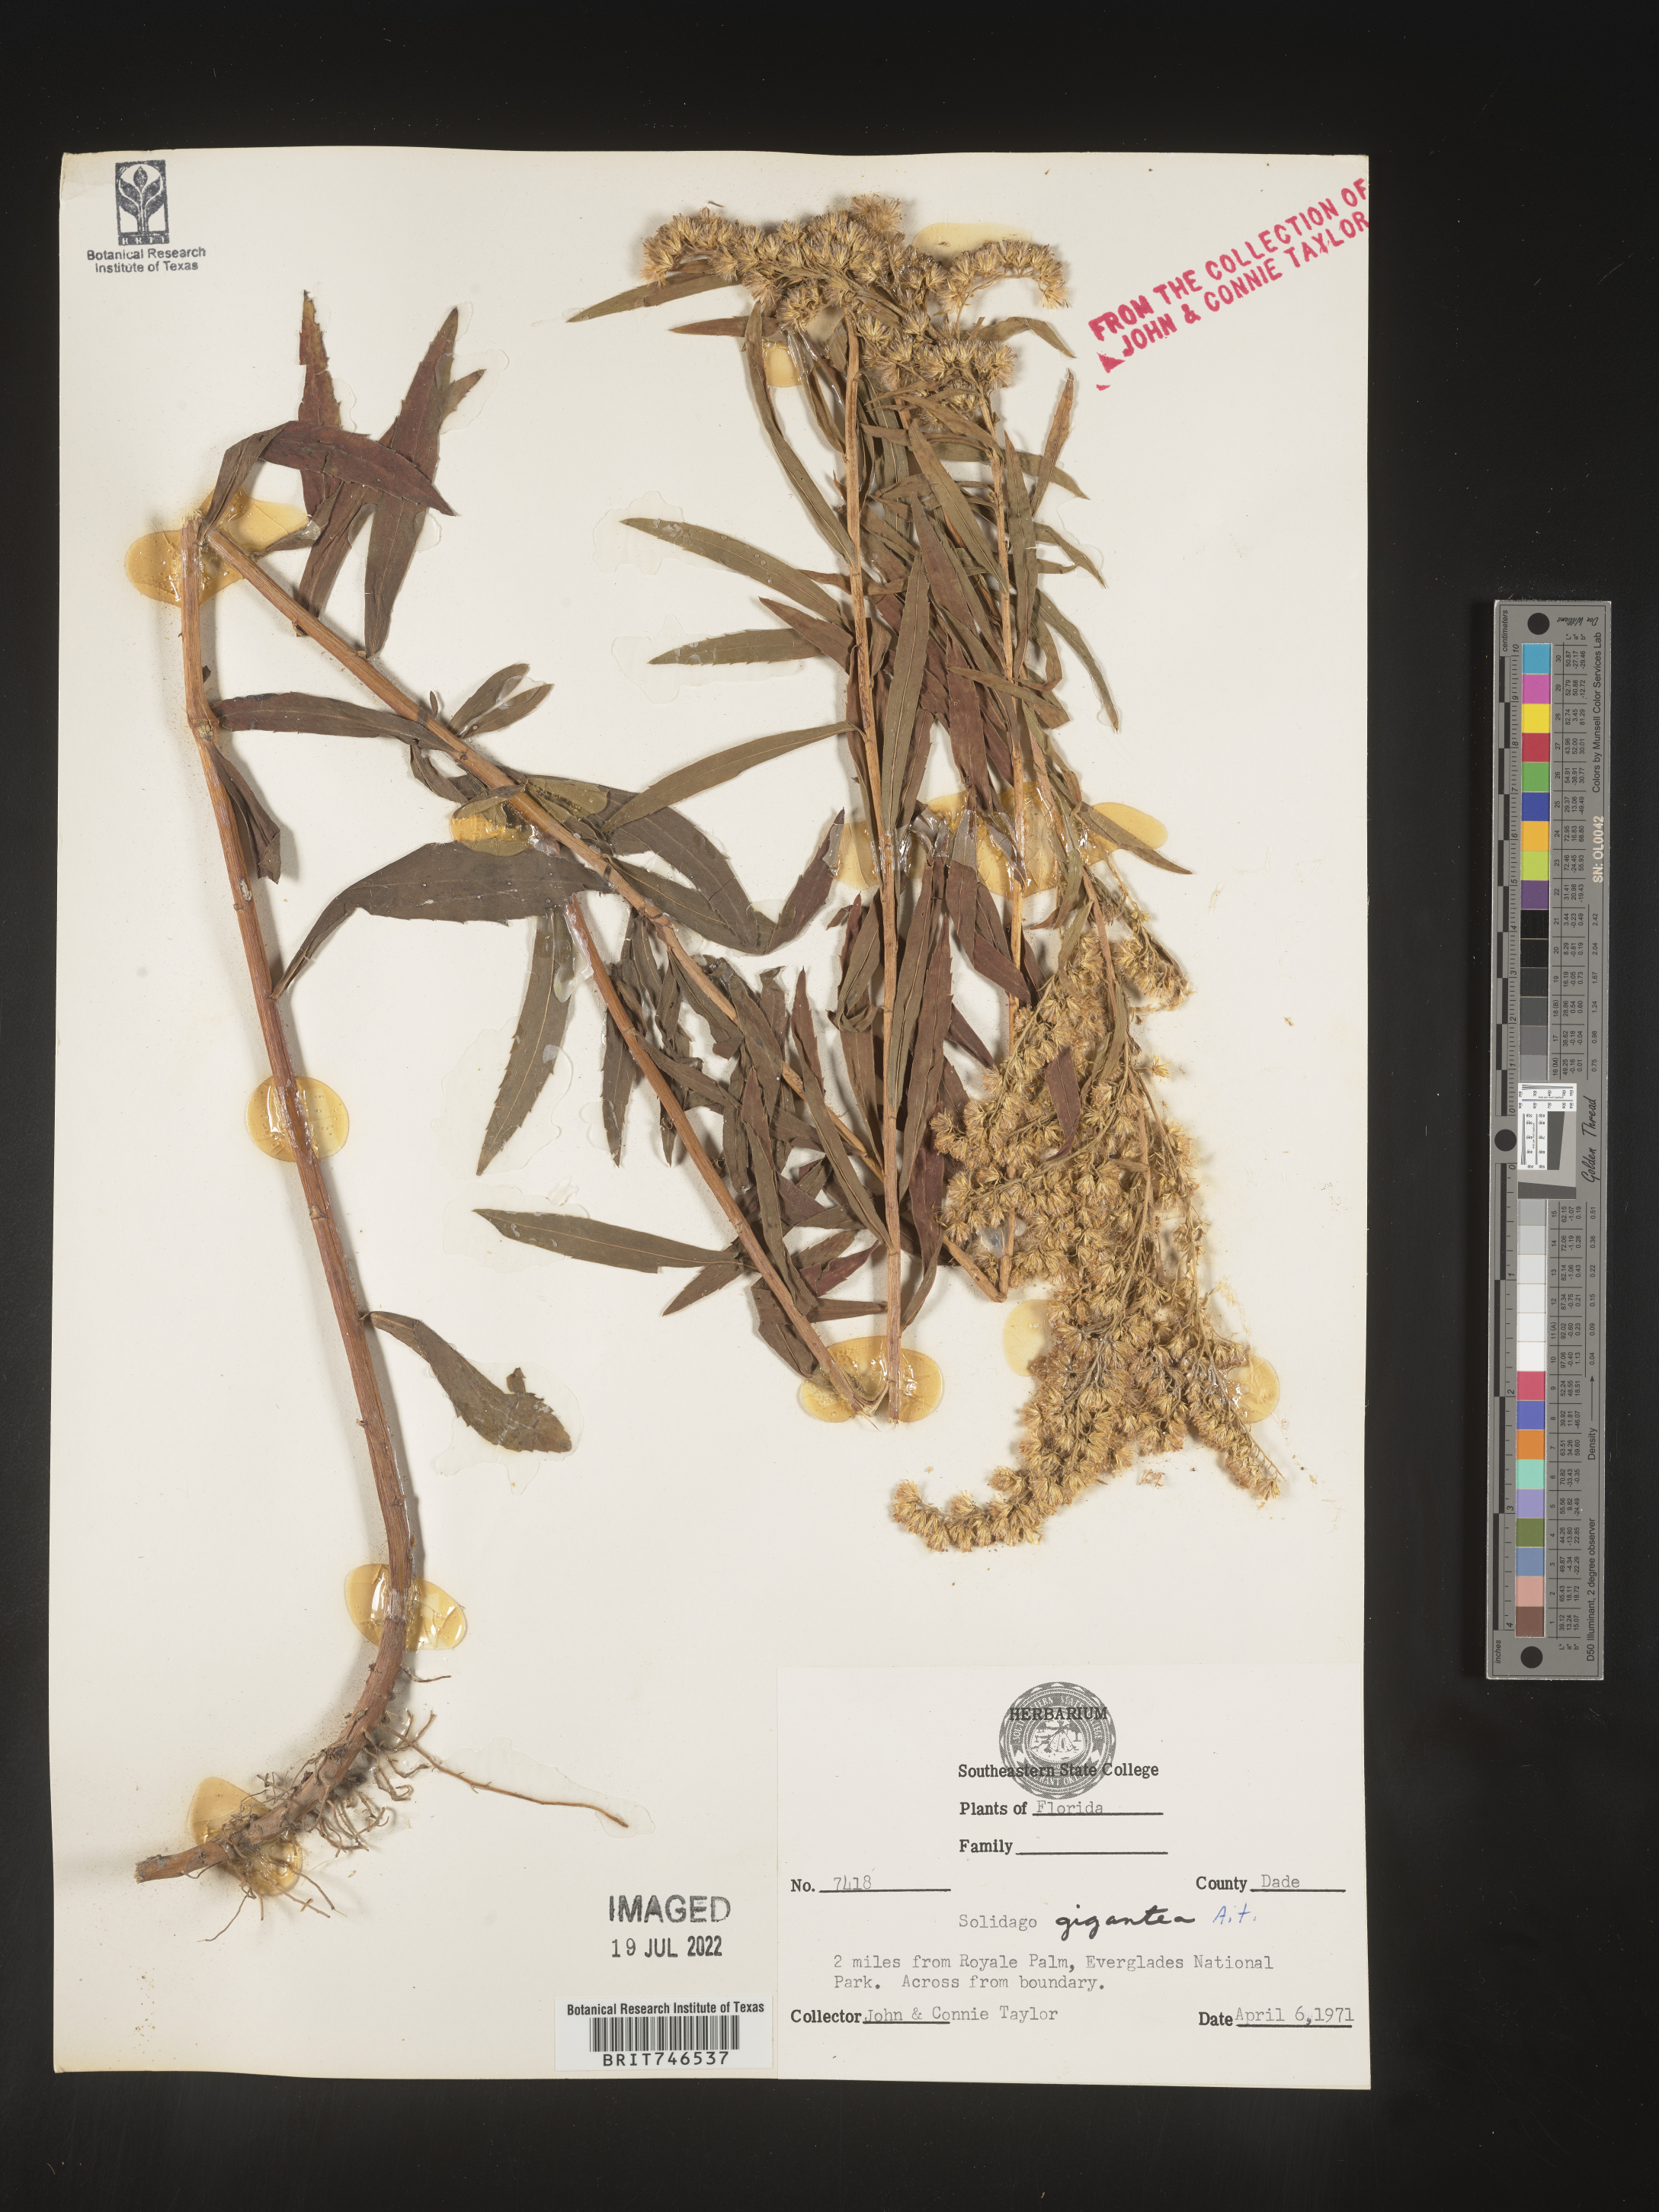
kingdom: Plantae
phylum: Tracheophyta
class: Magnoliopsida
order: Asterales
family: Asteraceae
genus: Solidago
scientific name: Solidago gigantea
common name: Giant goldenrod
